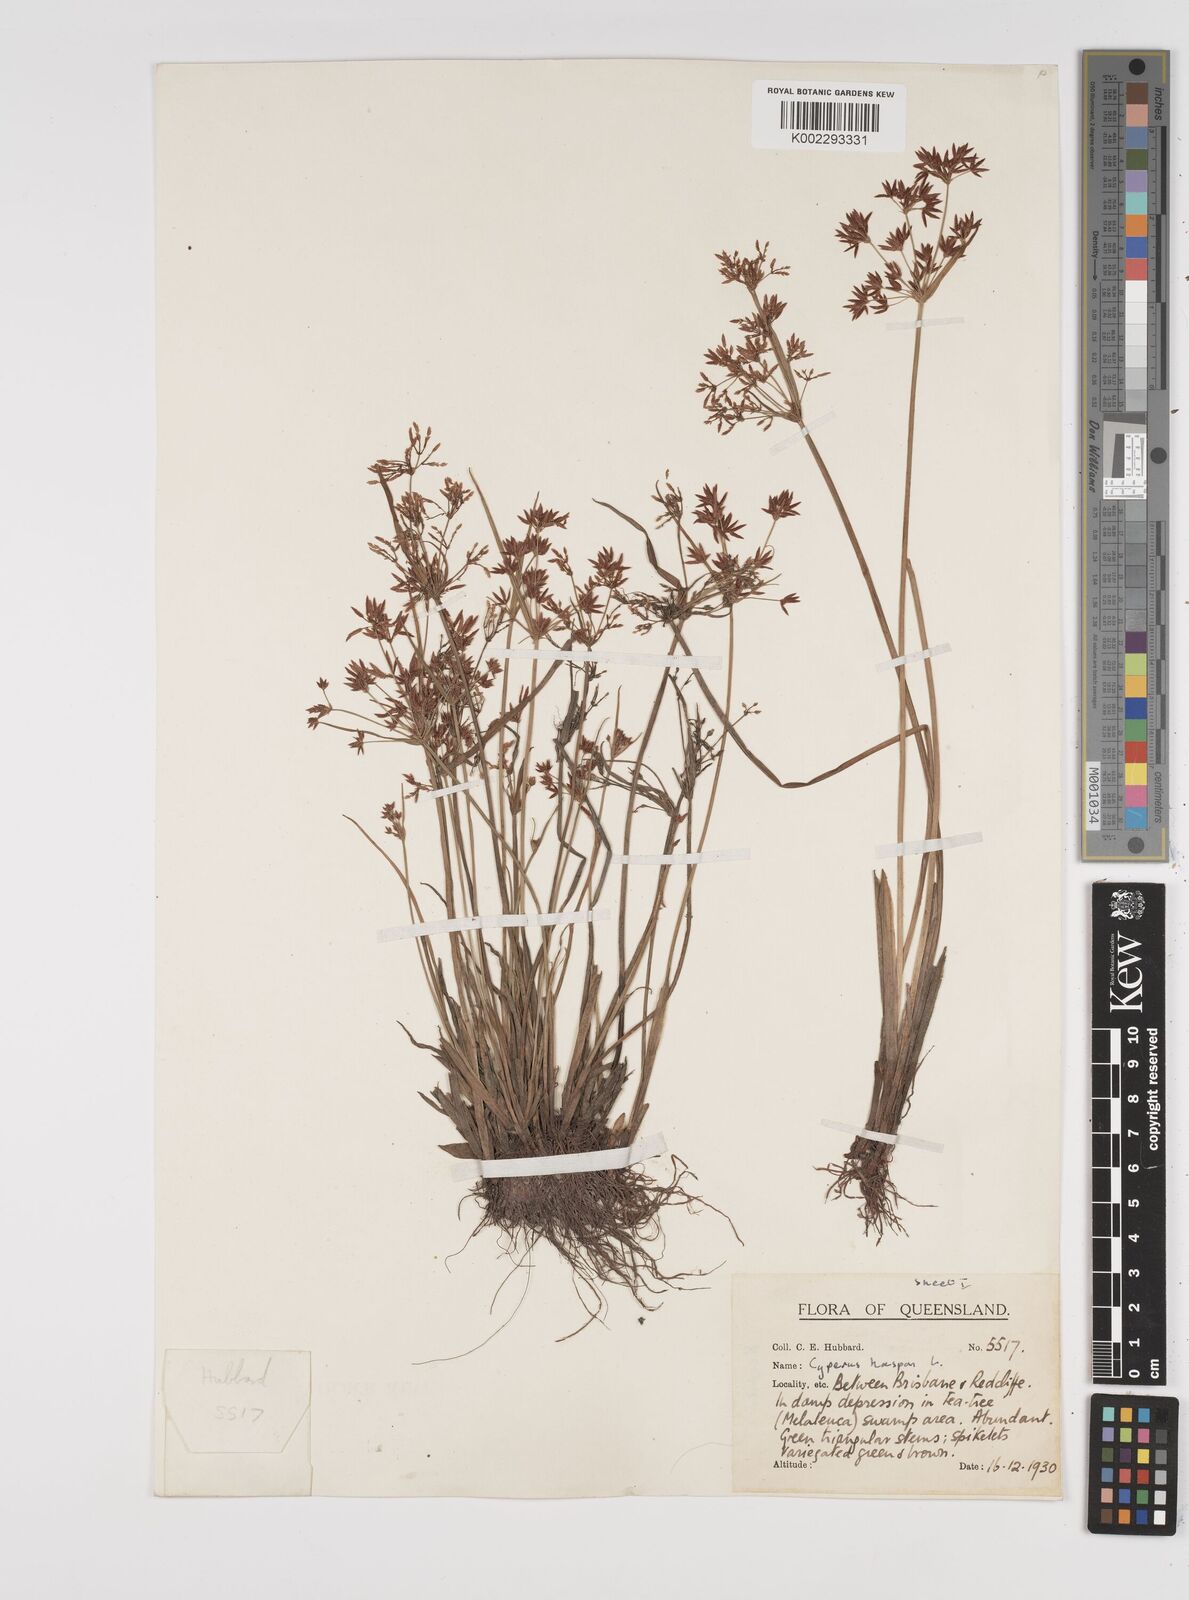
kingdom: Plantae
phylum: Tracheophyta
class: Liliopsida
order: Poales
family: Cyperaceae
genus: Cyperus
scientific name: Cyperus haspan
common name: Haspan flatsedge
